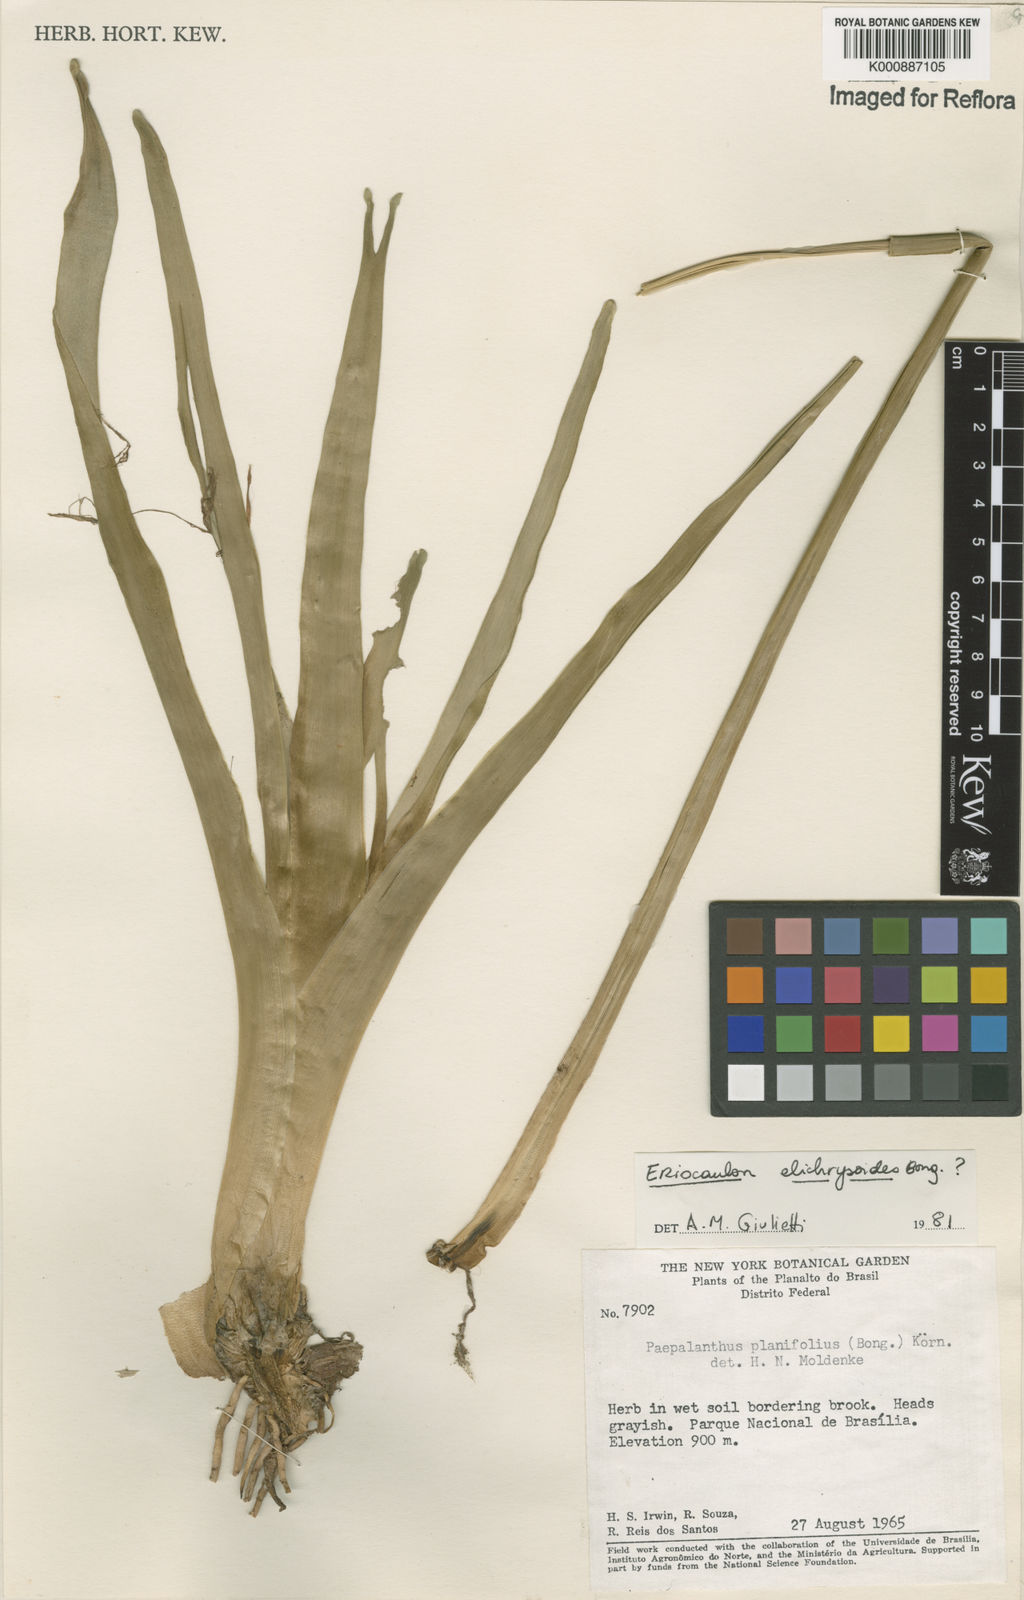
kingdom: Plantae
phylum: Tracheophyta
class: Liliopsida
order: Poales
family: Eriocaulaceae
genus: Eriocaulon
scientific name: Eriocaulon
